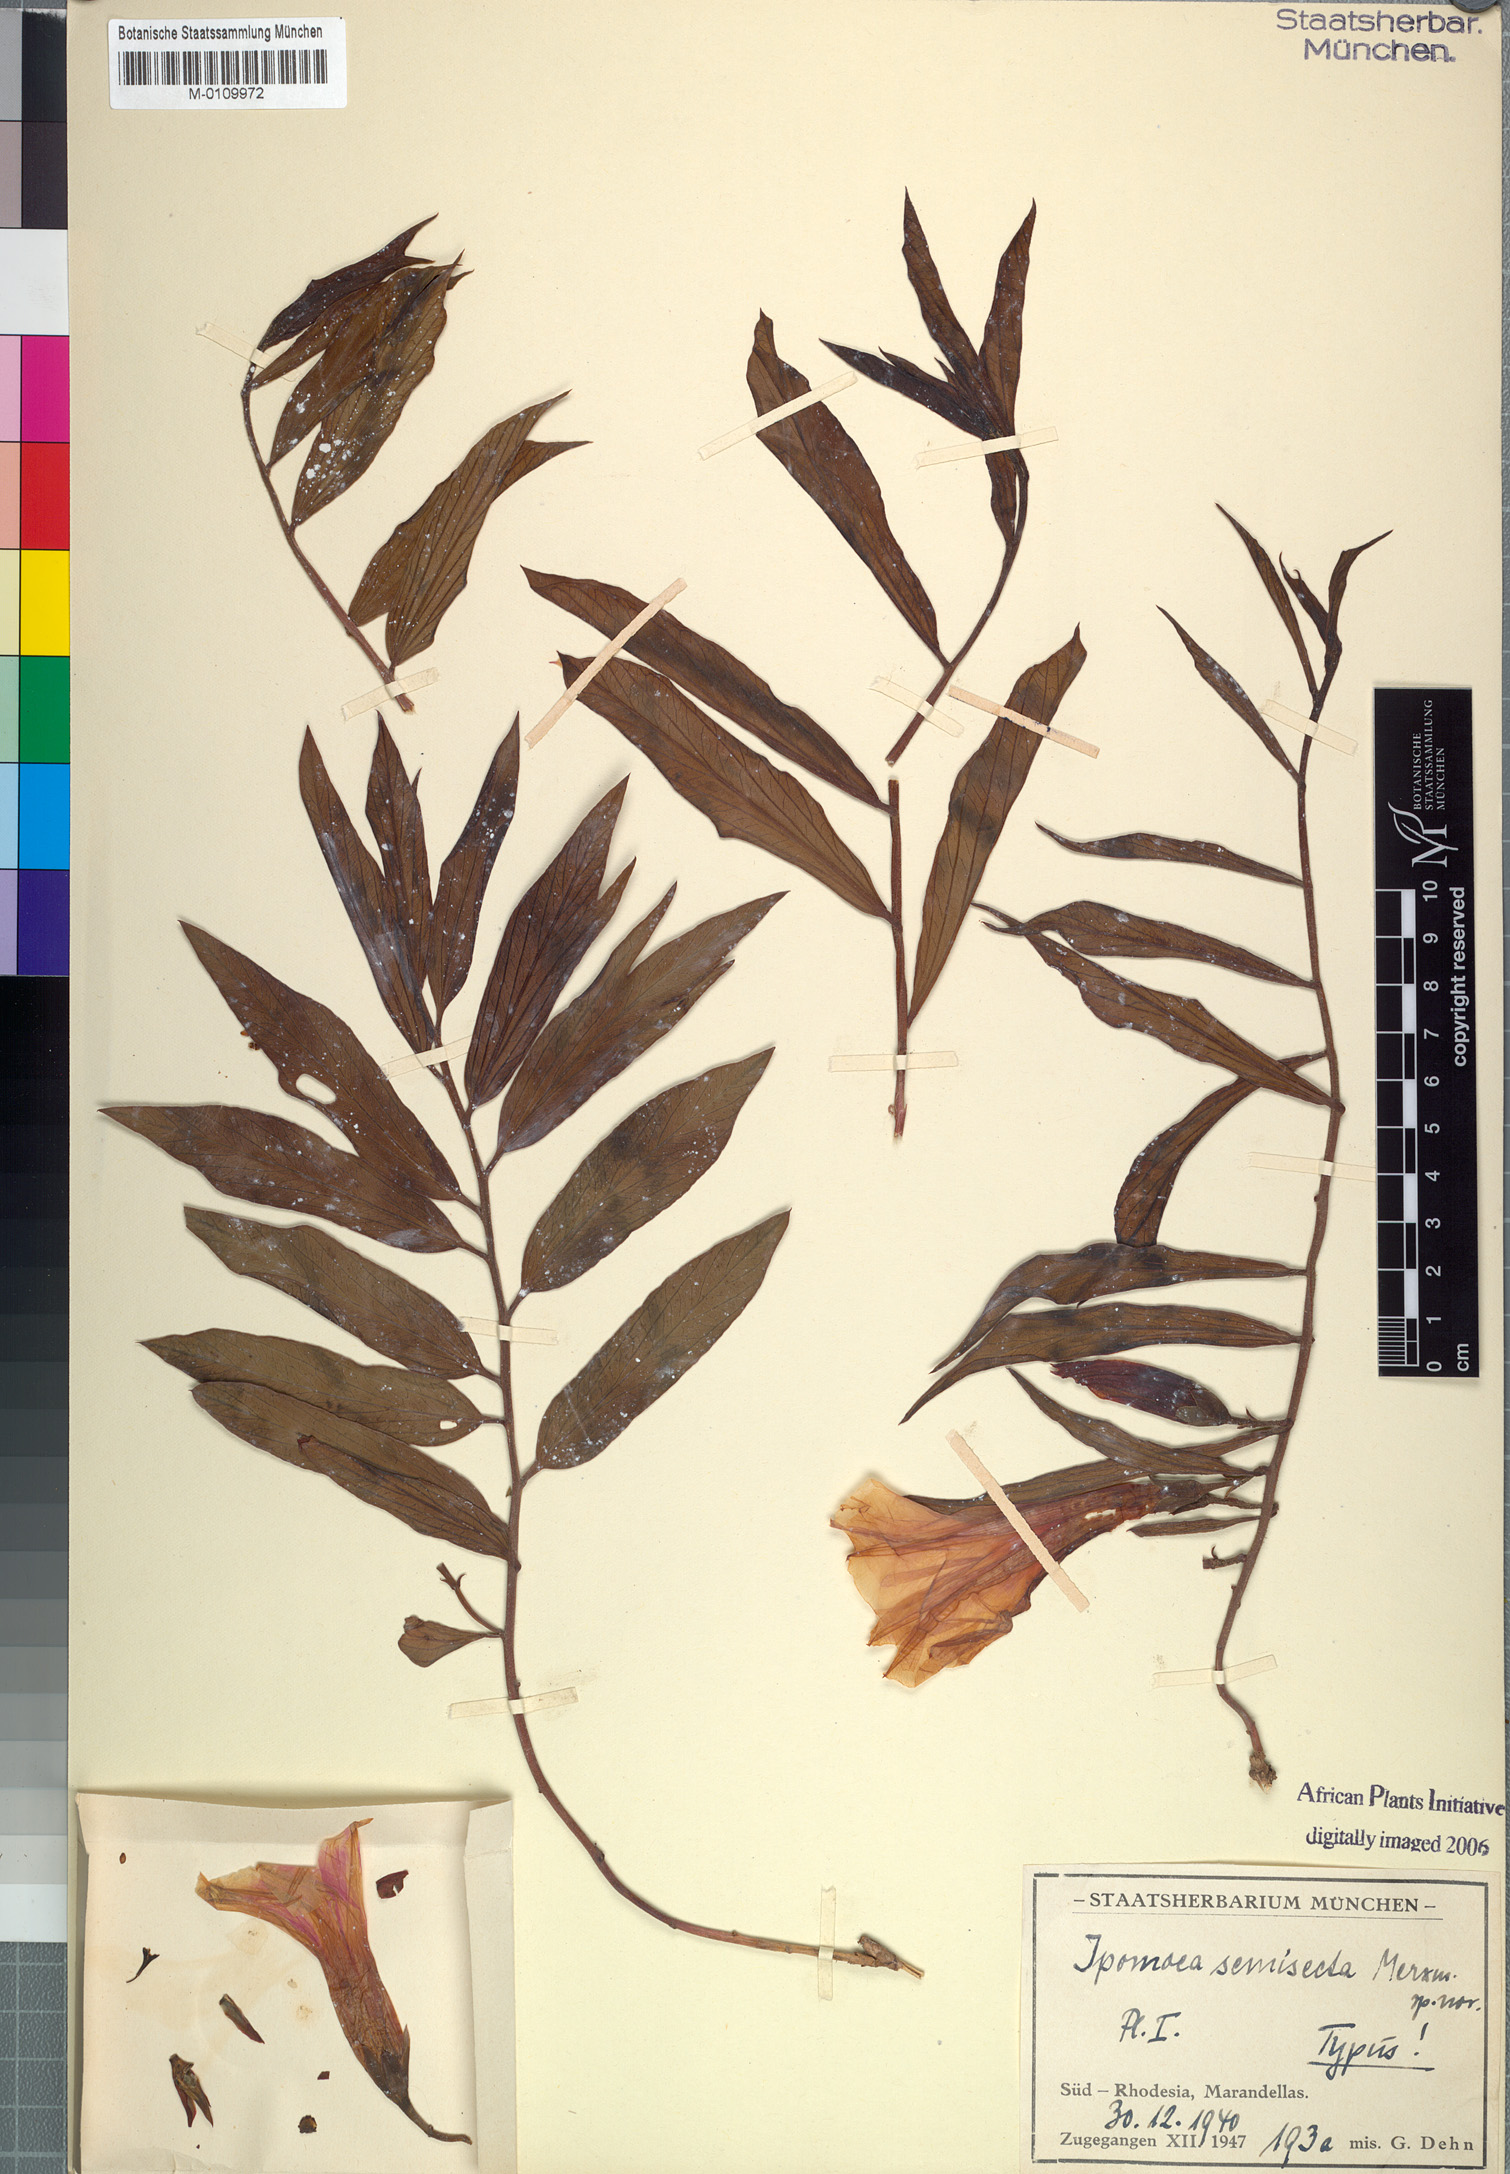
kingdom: Plantae
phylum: Tracheophyta
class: Magnoliopsida
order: Solanales
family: Convolvulaceae
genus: Ipomoea
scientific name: Ipomoea welwitschii
